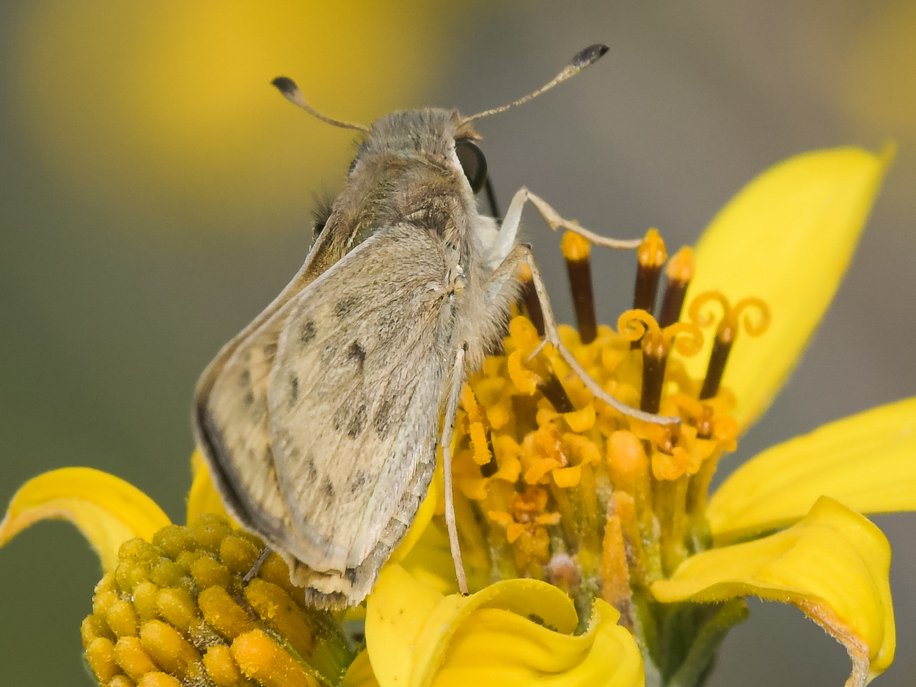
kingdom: Animalia
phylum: Arthropoda
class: Insecta
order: Lepidoptera
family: Hesperiidae
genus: Hylephila
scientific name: Hylephila phyleus
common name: Fiery Skipper
